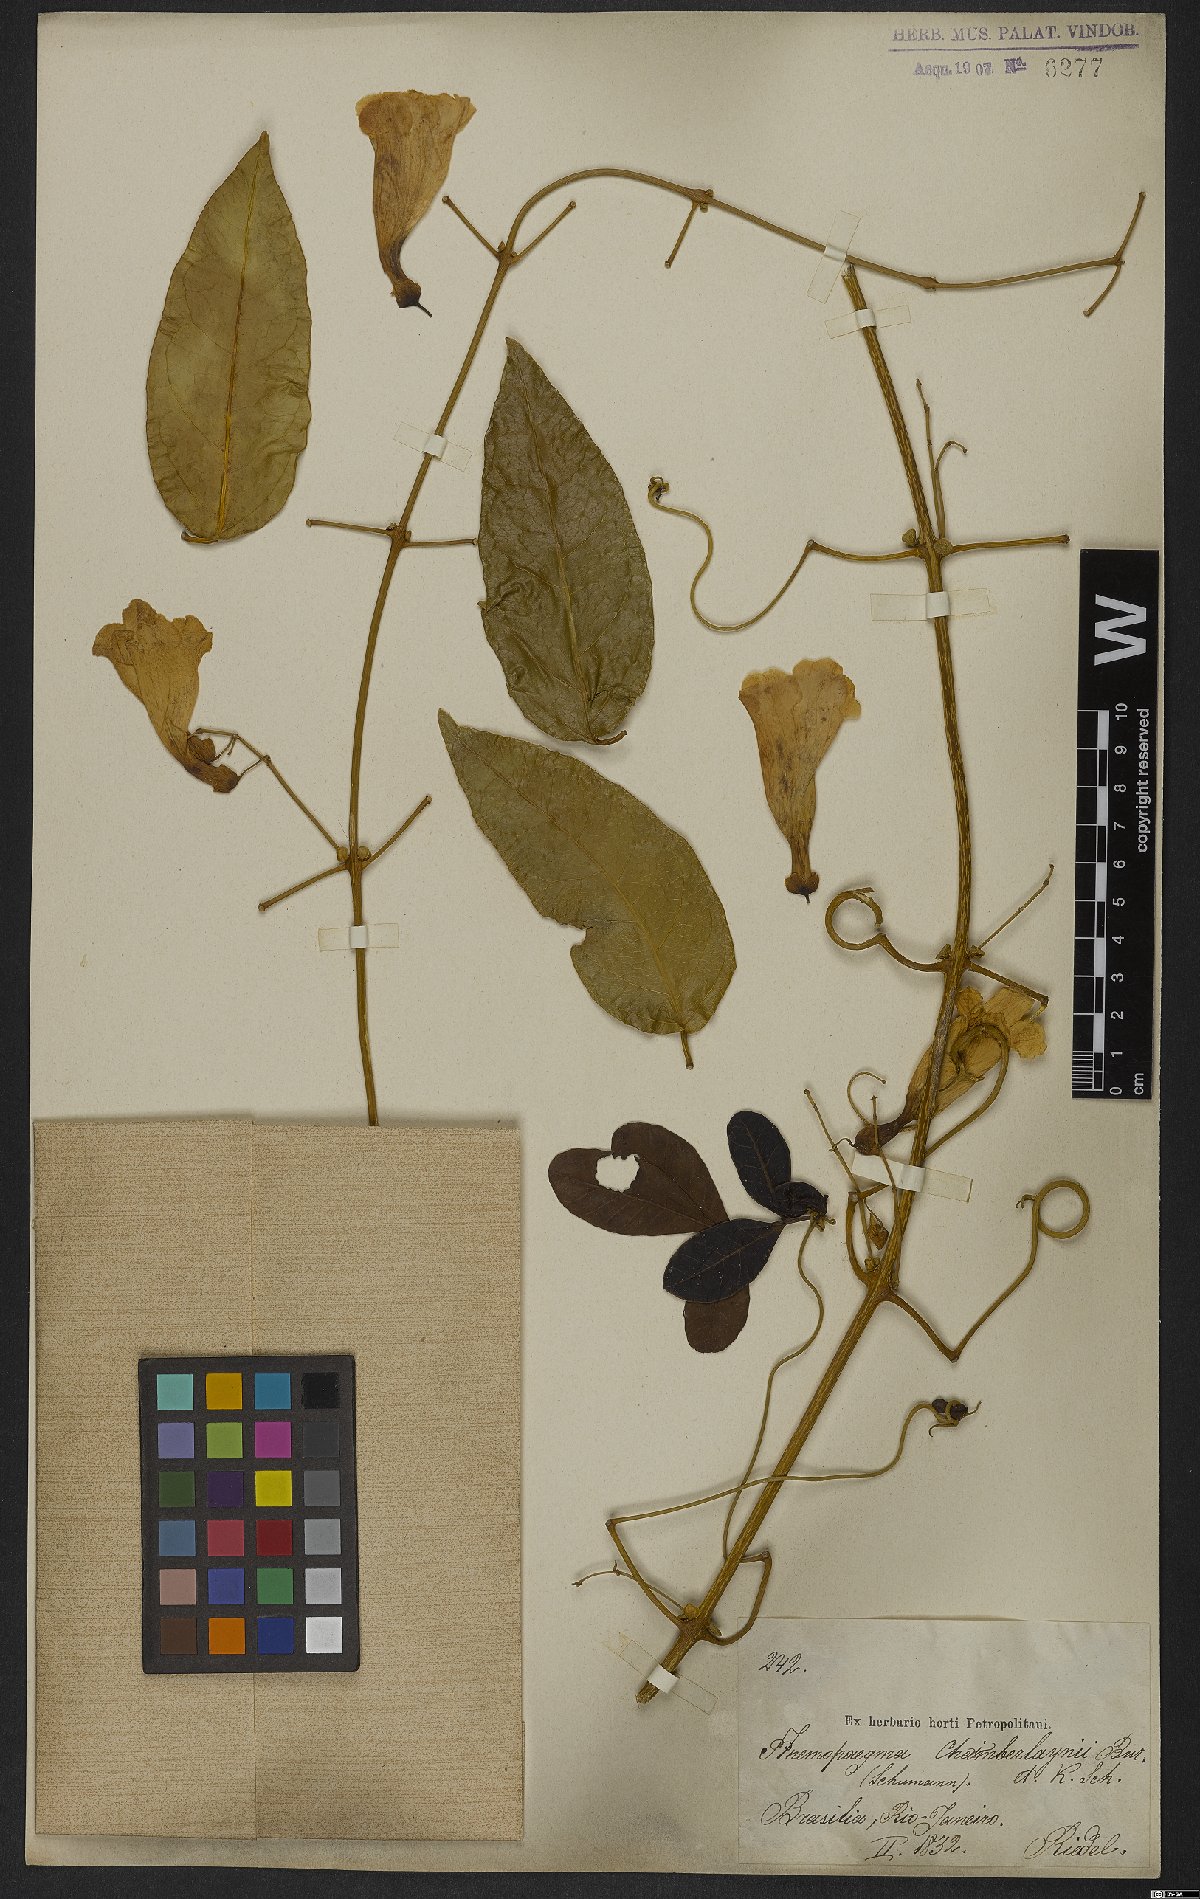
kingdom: Plantae
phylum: Tracheophyta
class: Magnoliopsida
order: Lamiales
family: Bignoniaceae
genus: Anemopaegma
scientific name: Anemopaegma chamberlaynii
